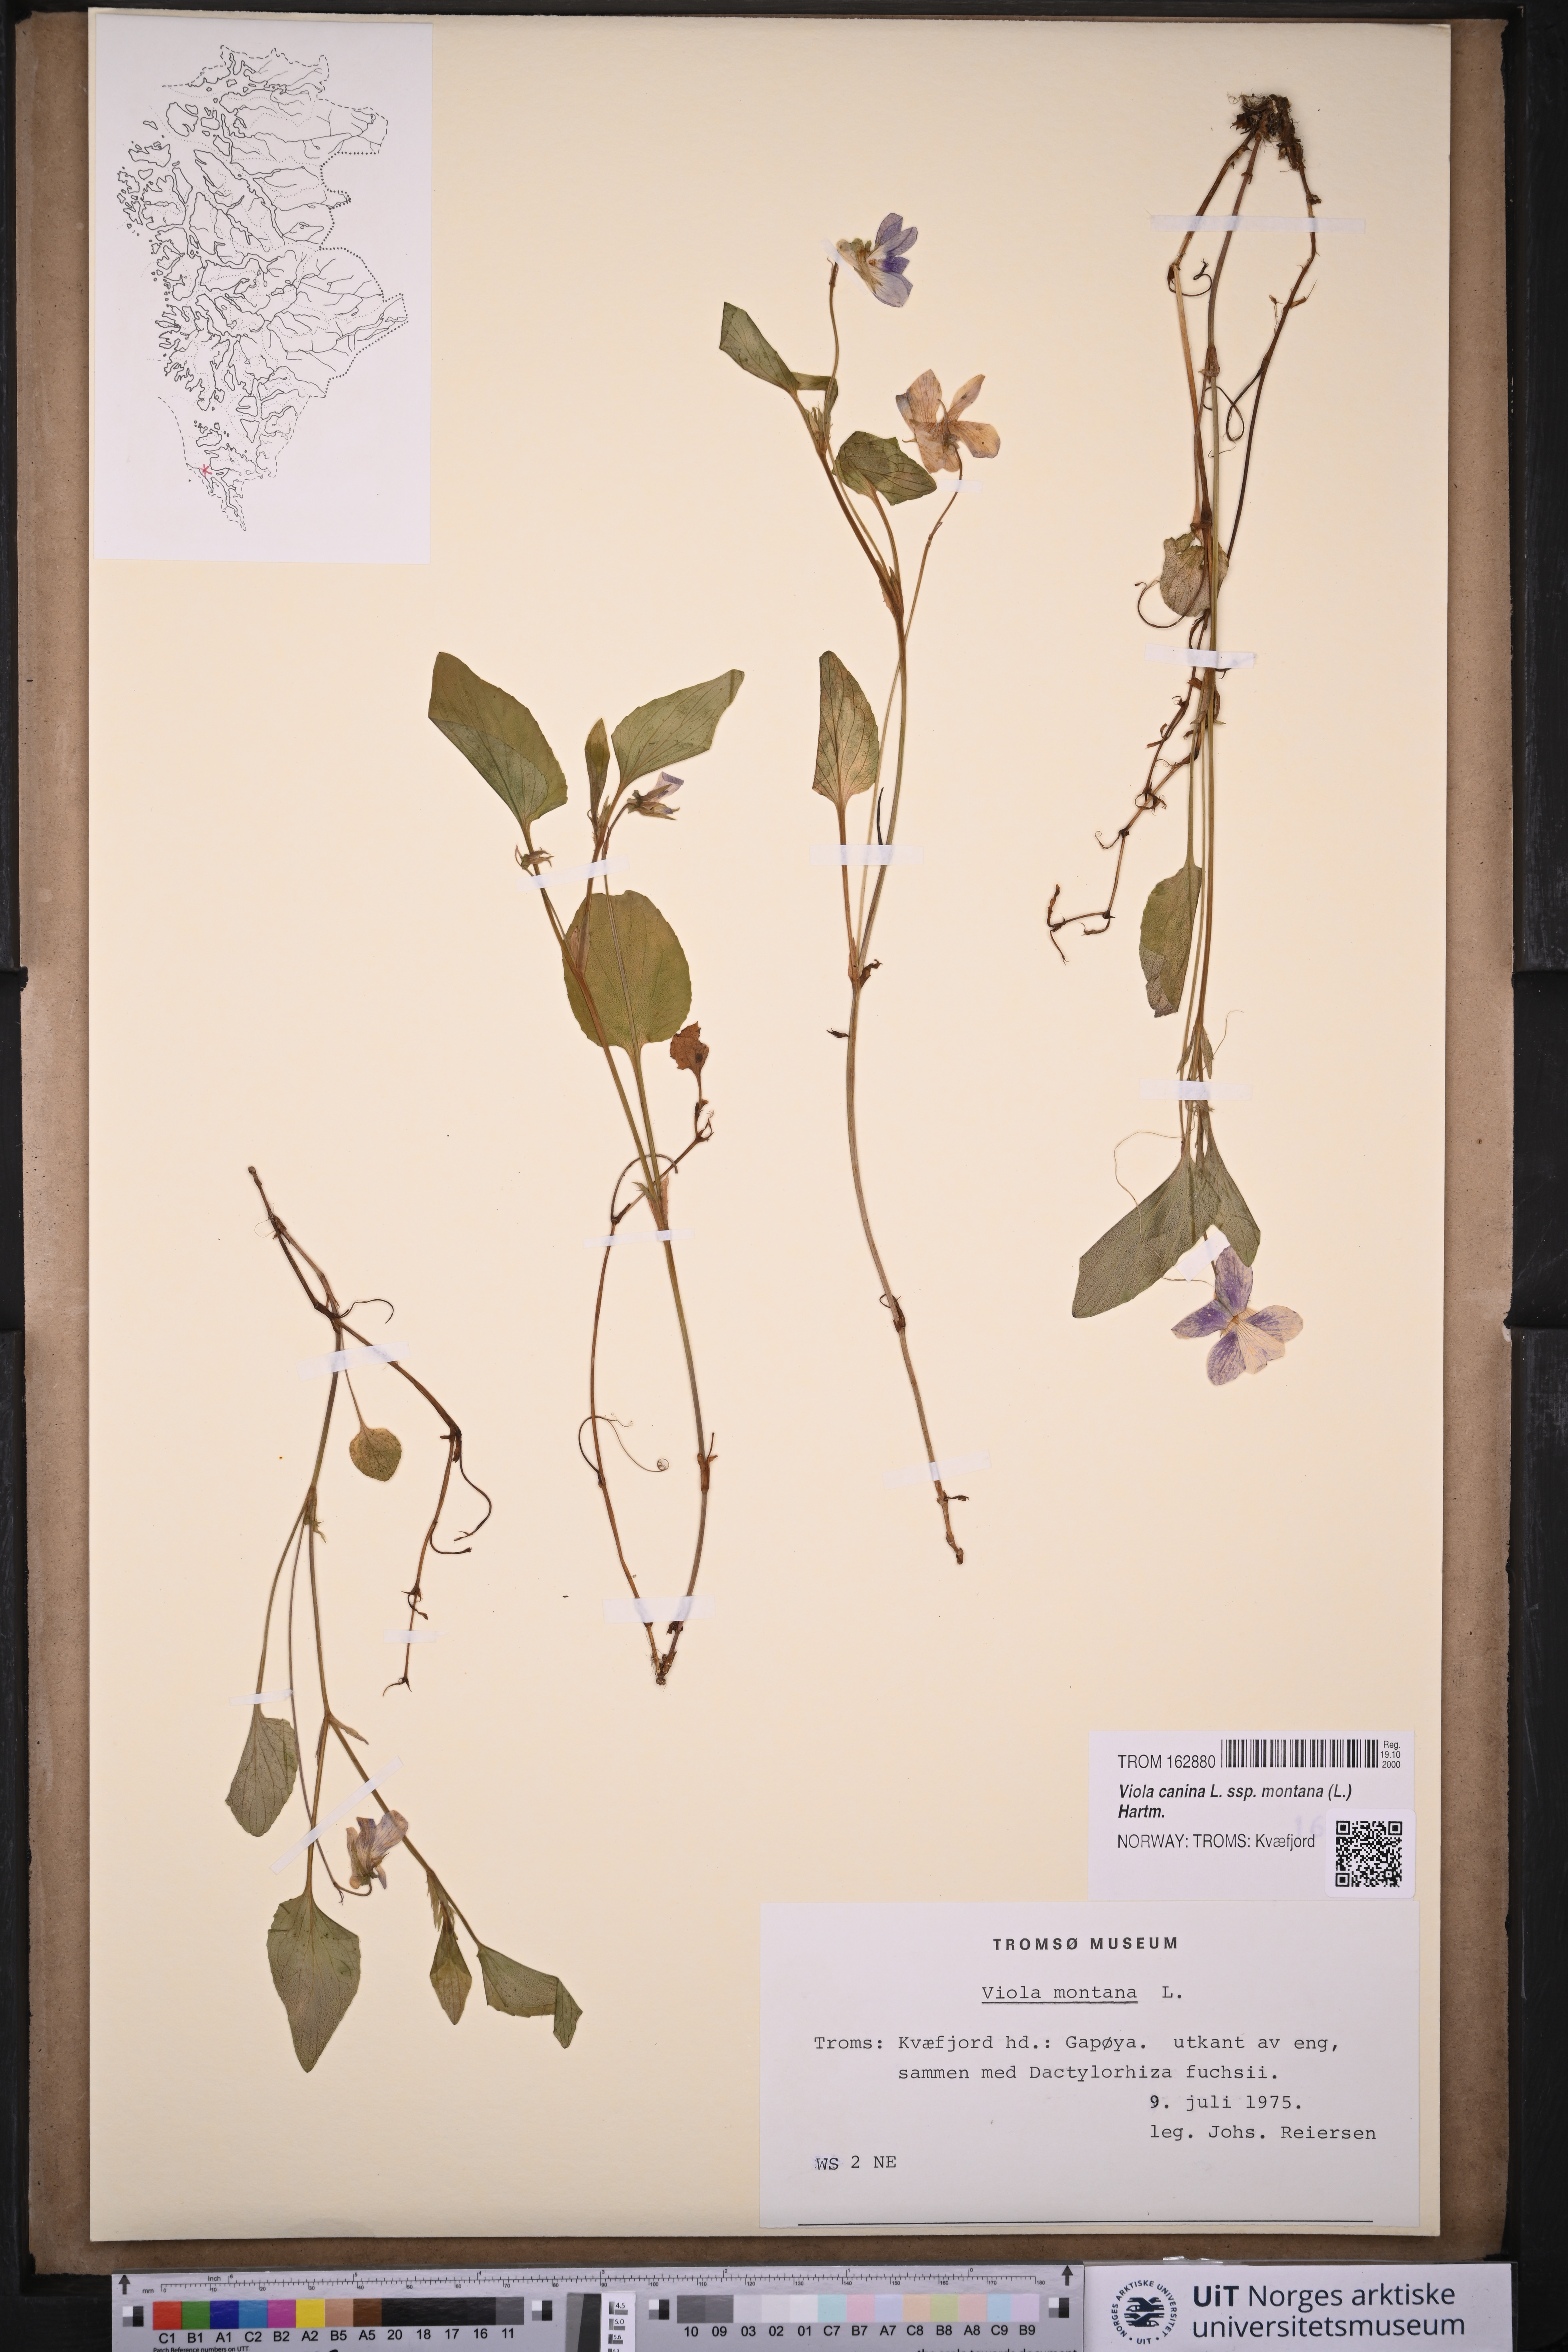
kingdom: Plantae
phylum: Tracheophyta
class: Magnoliopsida
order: Malpighiales
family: Violaceae
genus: Viola
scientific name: Viola ruppii
